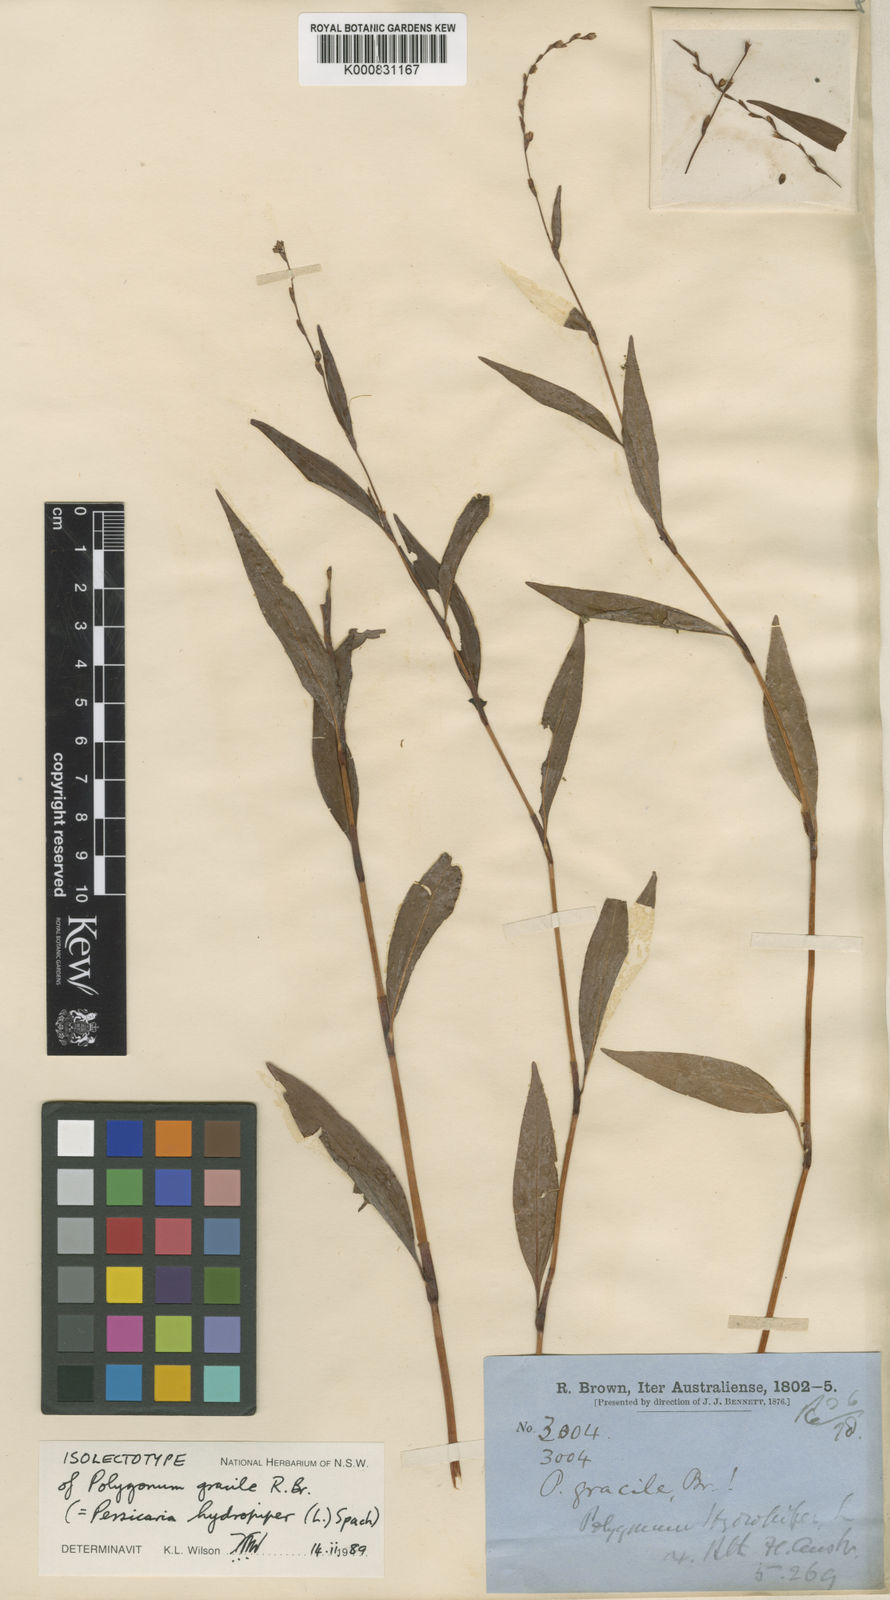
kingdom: Plantae
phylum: Tracheophyta
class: Magnoliopsida
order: Caryophyllales
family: Polygonaceae
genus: Persicaria
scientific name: Persicaria
